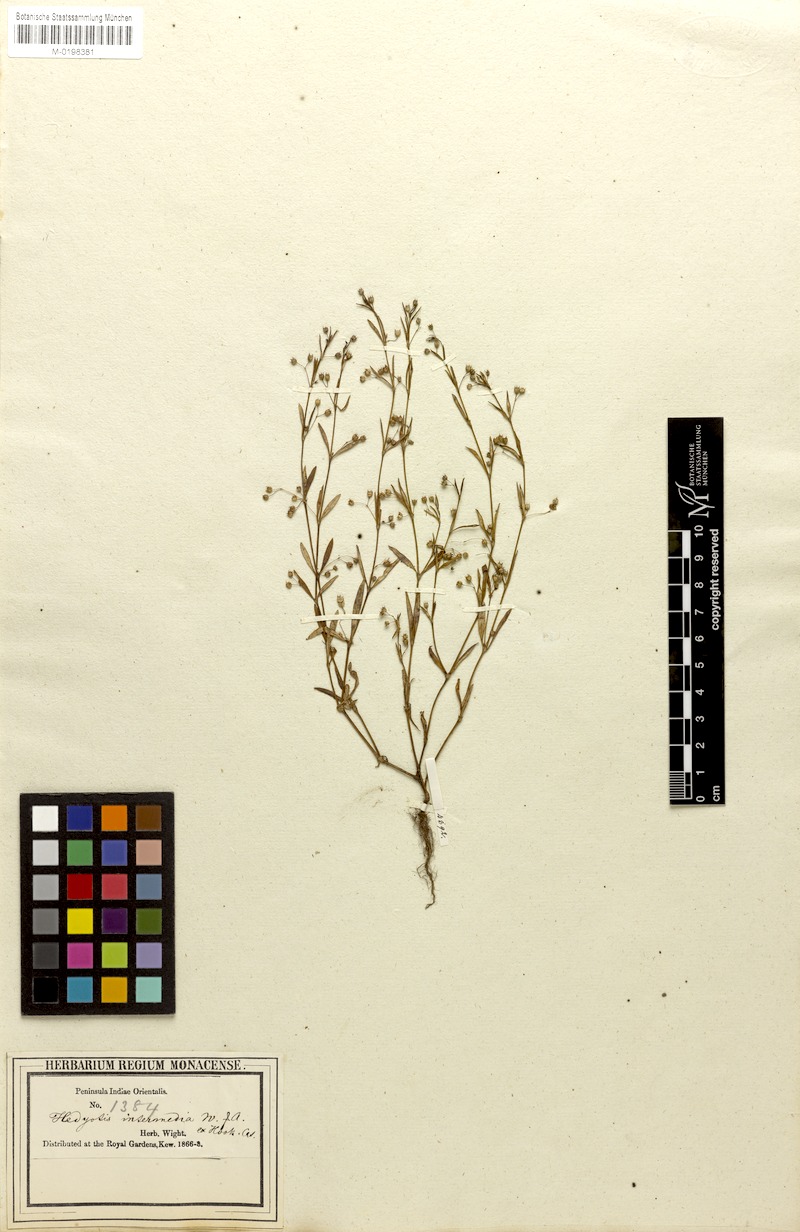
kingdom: Plantae
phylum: Tracheophyta
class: Magnoliopsida
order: Gentianales
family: Rubiaceae
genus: Oldenlandia
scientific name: Oldenlandia corymbosa
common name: Flat-top mille graines
